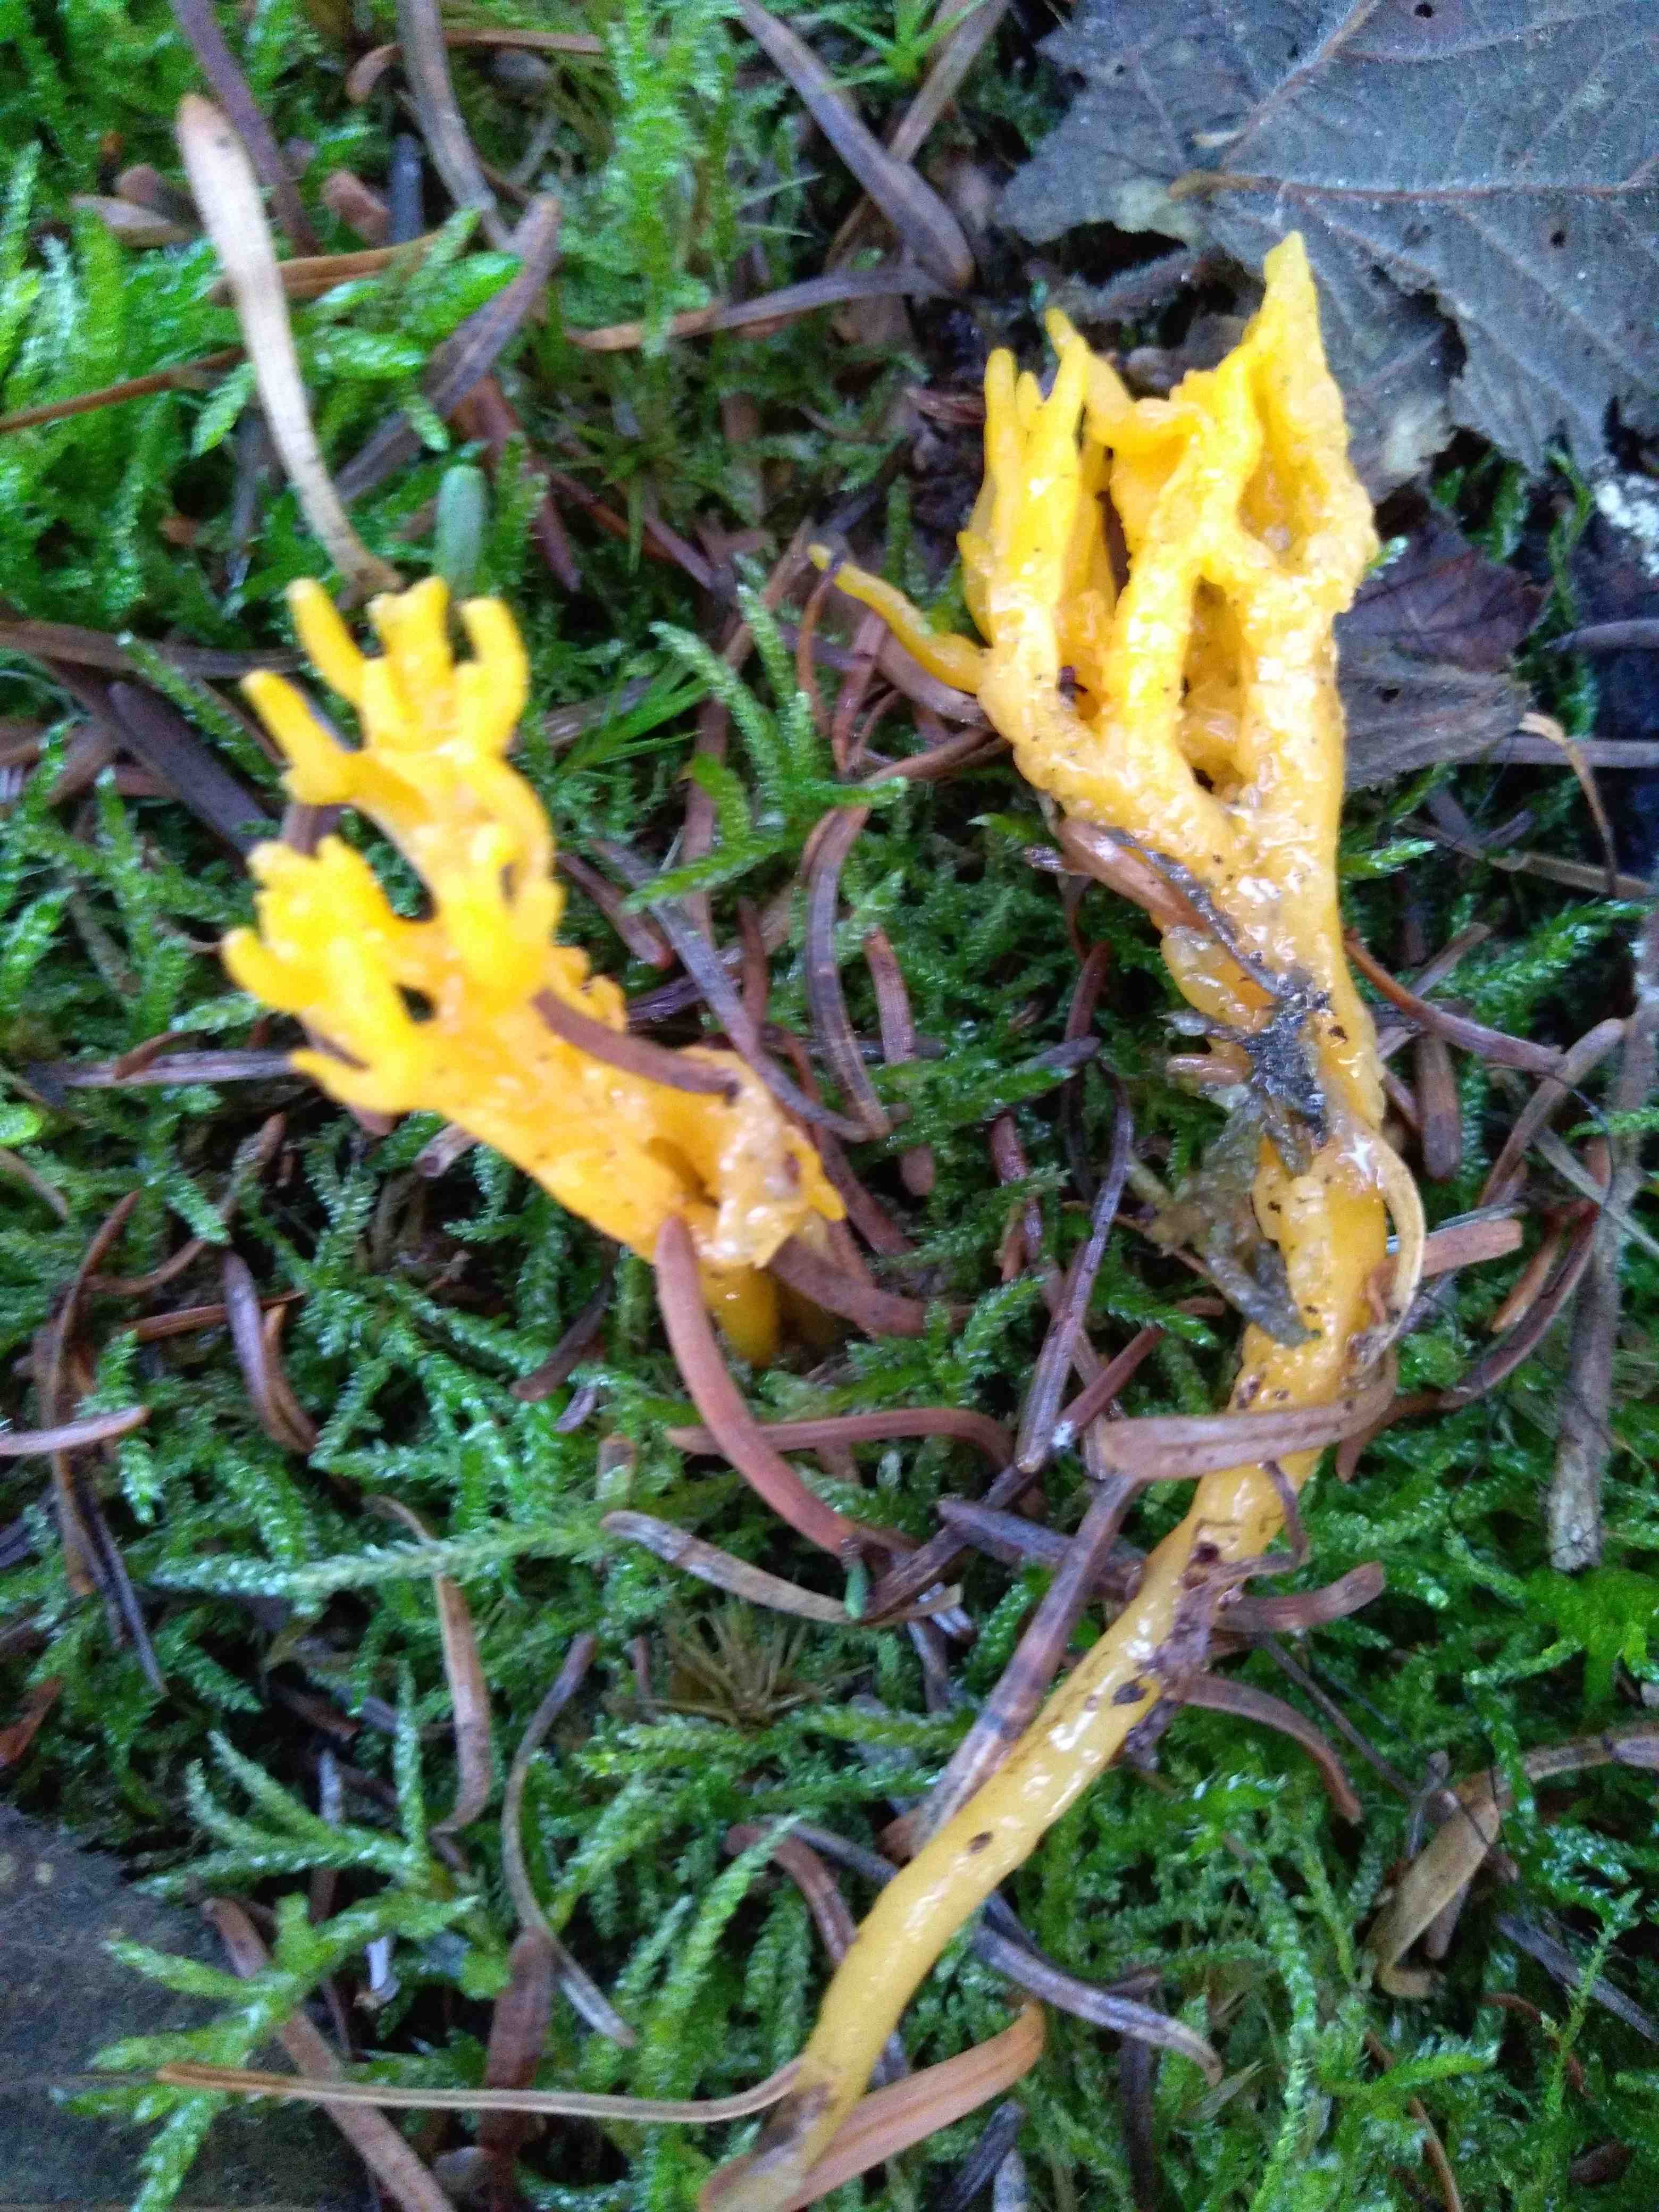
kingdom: Fungi
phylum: Basidiomycota
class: Dacrymycetes
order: Dacrymycetales
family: Dacrymycetaceae
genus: Calocera
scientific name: Calocera viscosa
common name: almindelig guldgaffel
